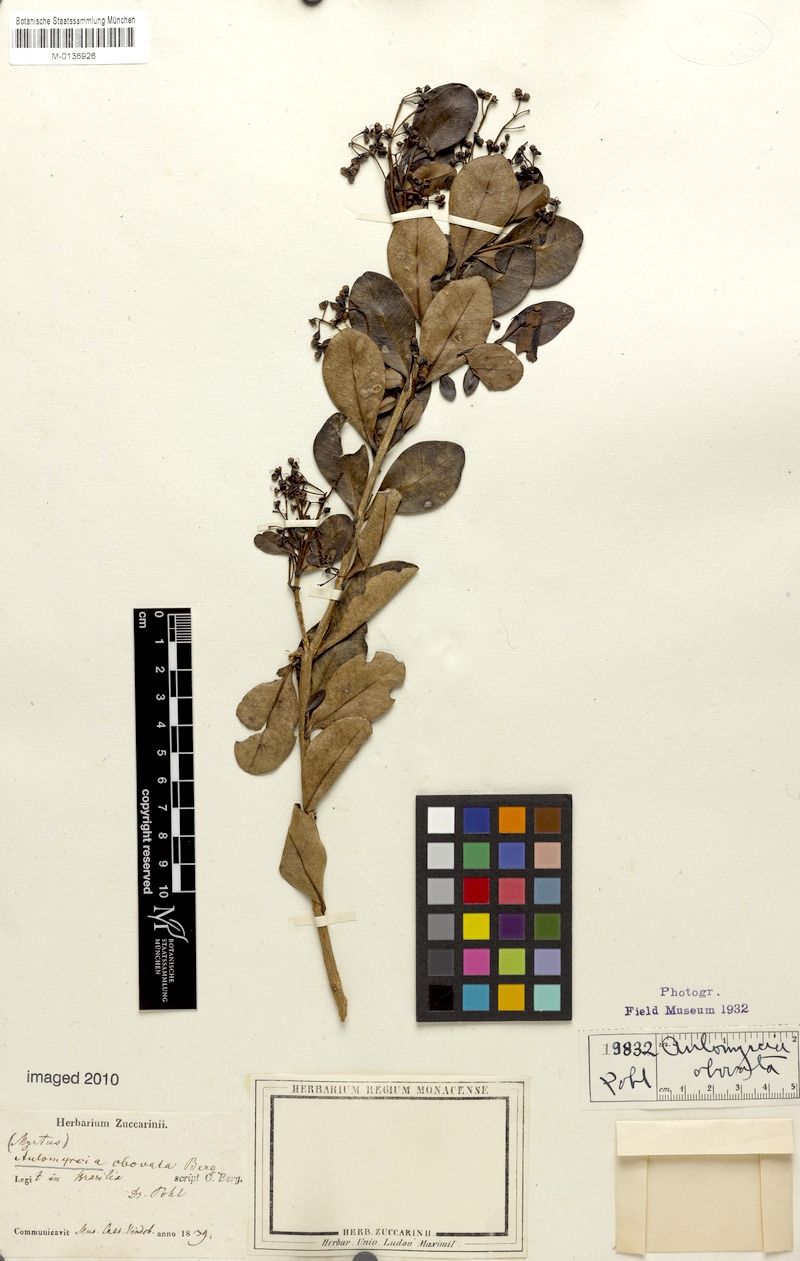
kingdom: Plantae
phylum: Tracheophyta
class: Magnoliopsida
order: Myrtales
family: Myrtaceae
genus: Myrcia
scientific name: Myrcia obovata
